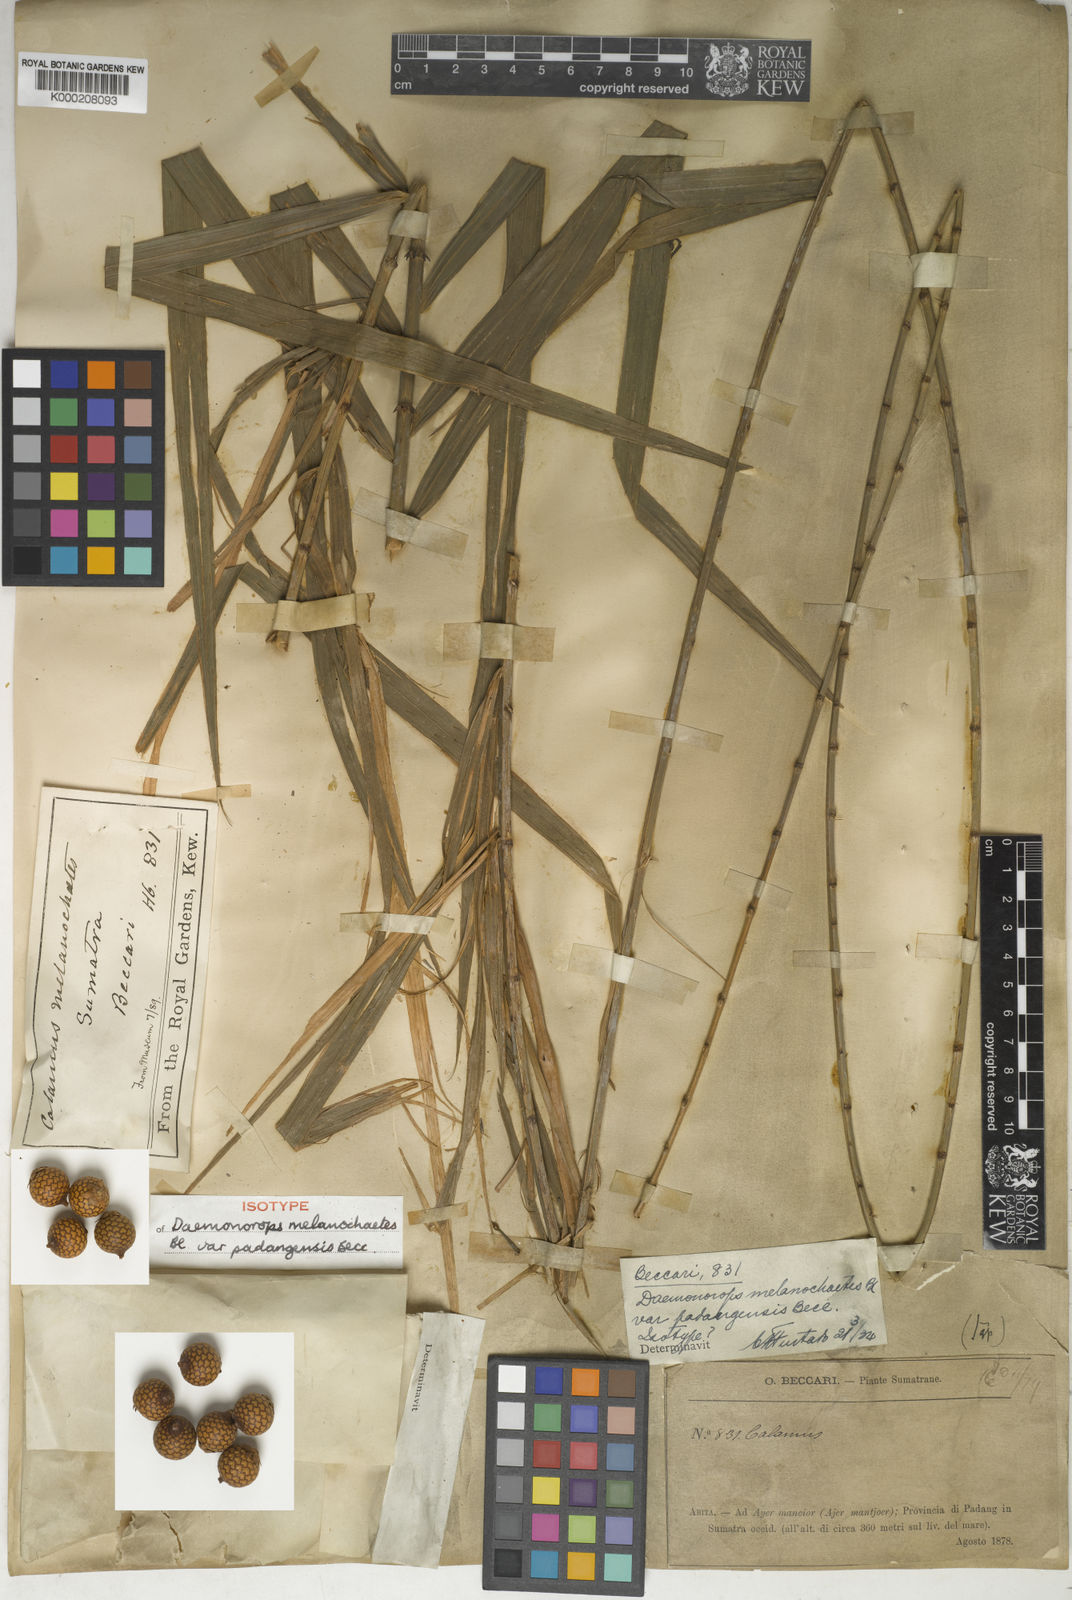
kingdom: Plantae
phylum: Tracheophyta
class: Liliopsida
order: Arecales
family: Arecaceae
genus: Calamus
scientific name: Calamus melanochaetes
